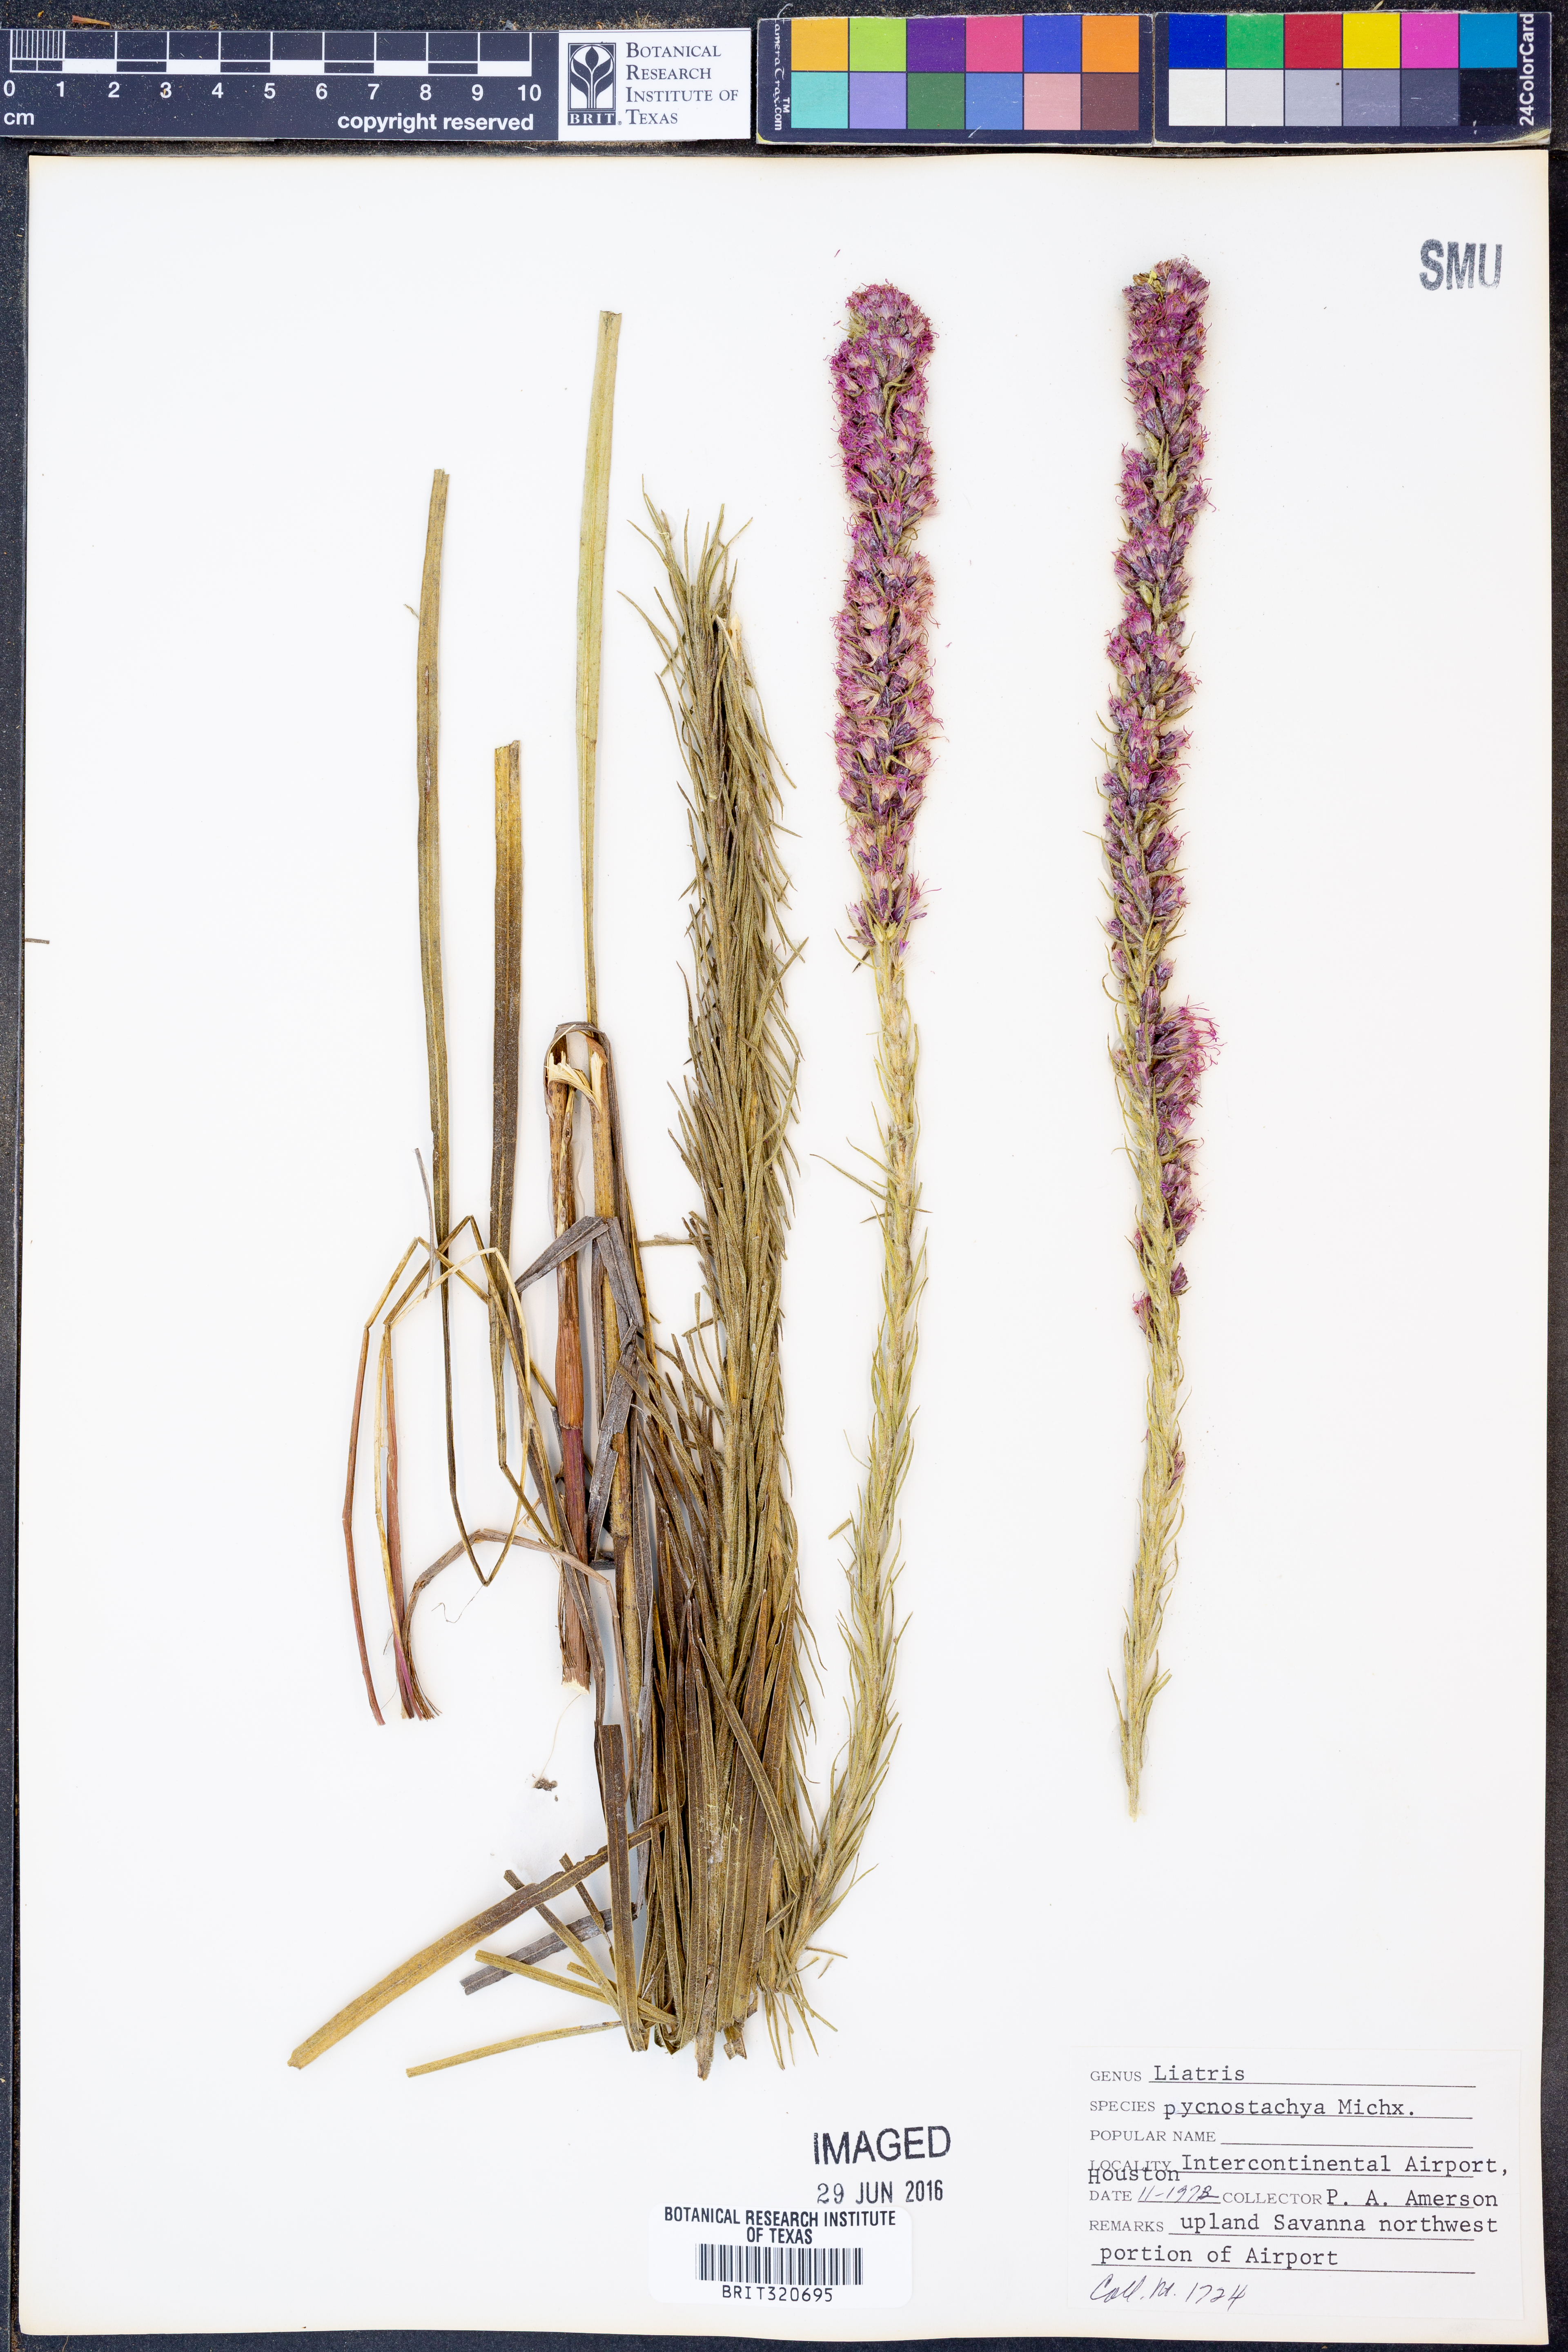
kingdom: Plantae
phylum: Tracheophyta
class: Magnoliopsida
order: Asterales
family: Asteraceae
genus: Liatris
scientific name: Liatris pycnostachya
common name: Cattail gayfeather
